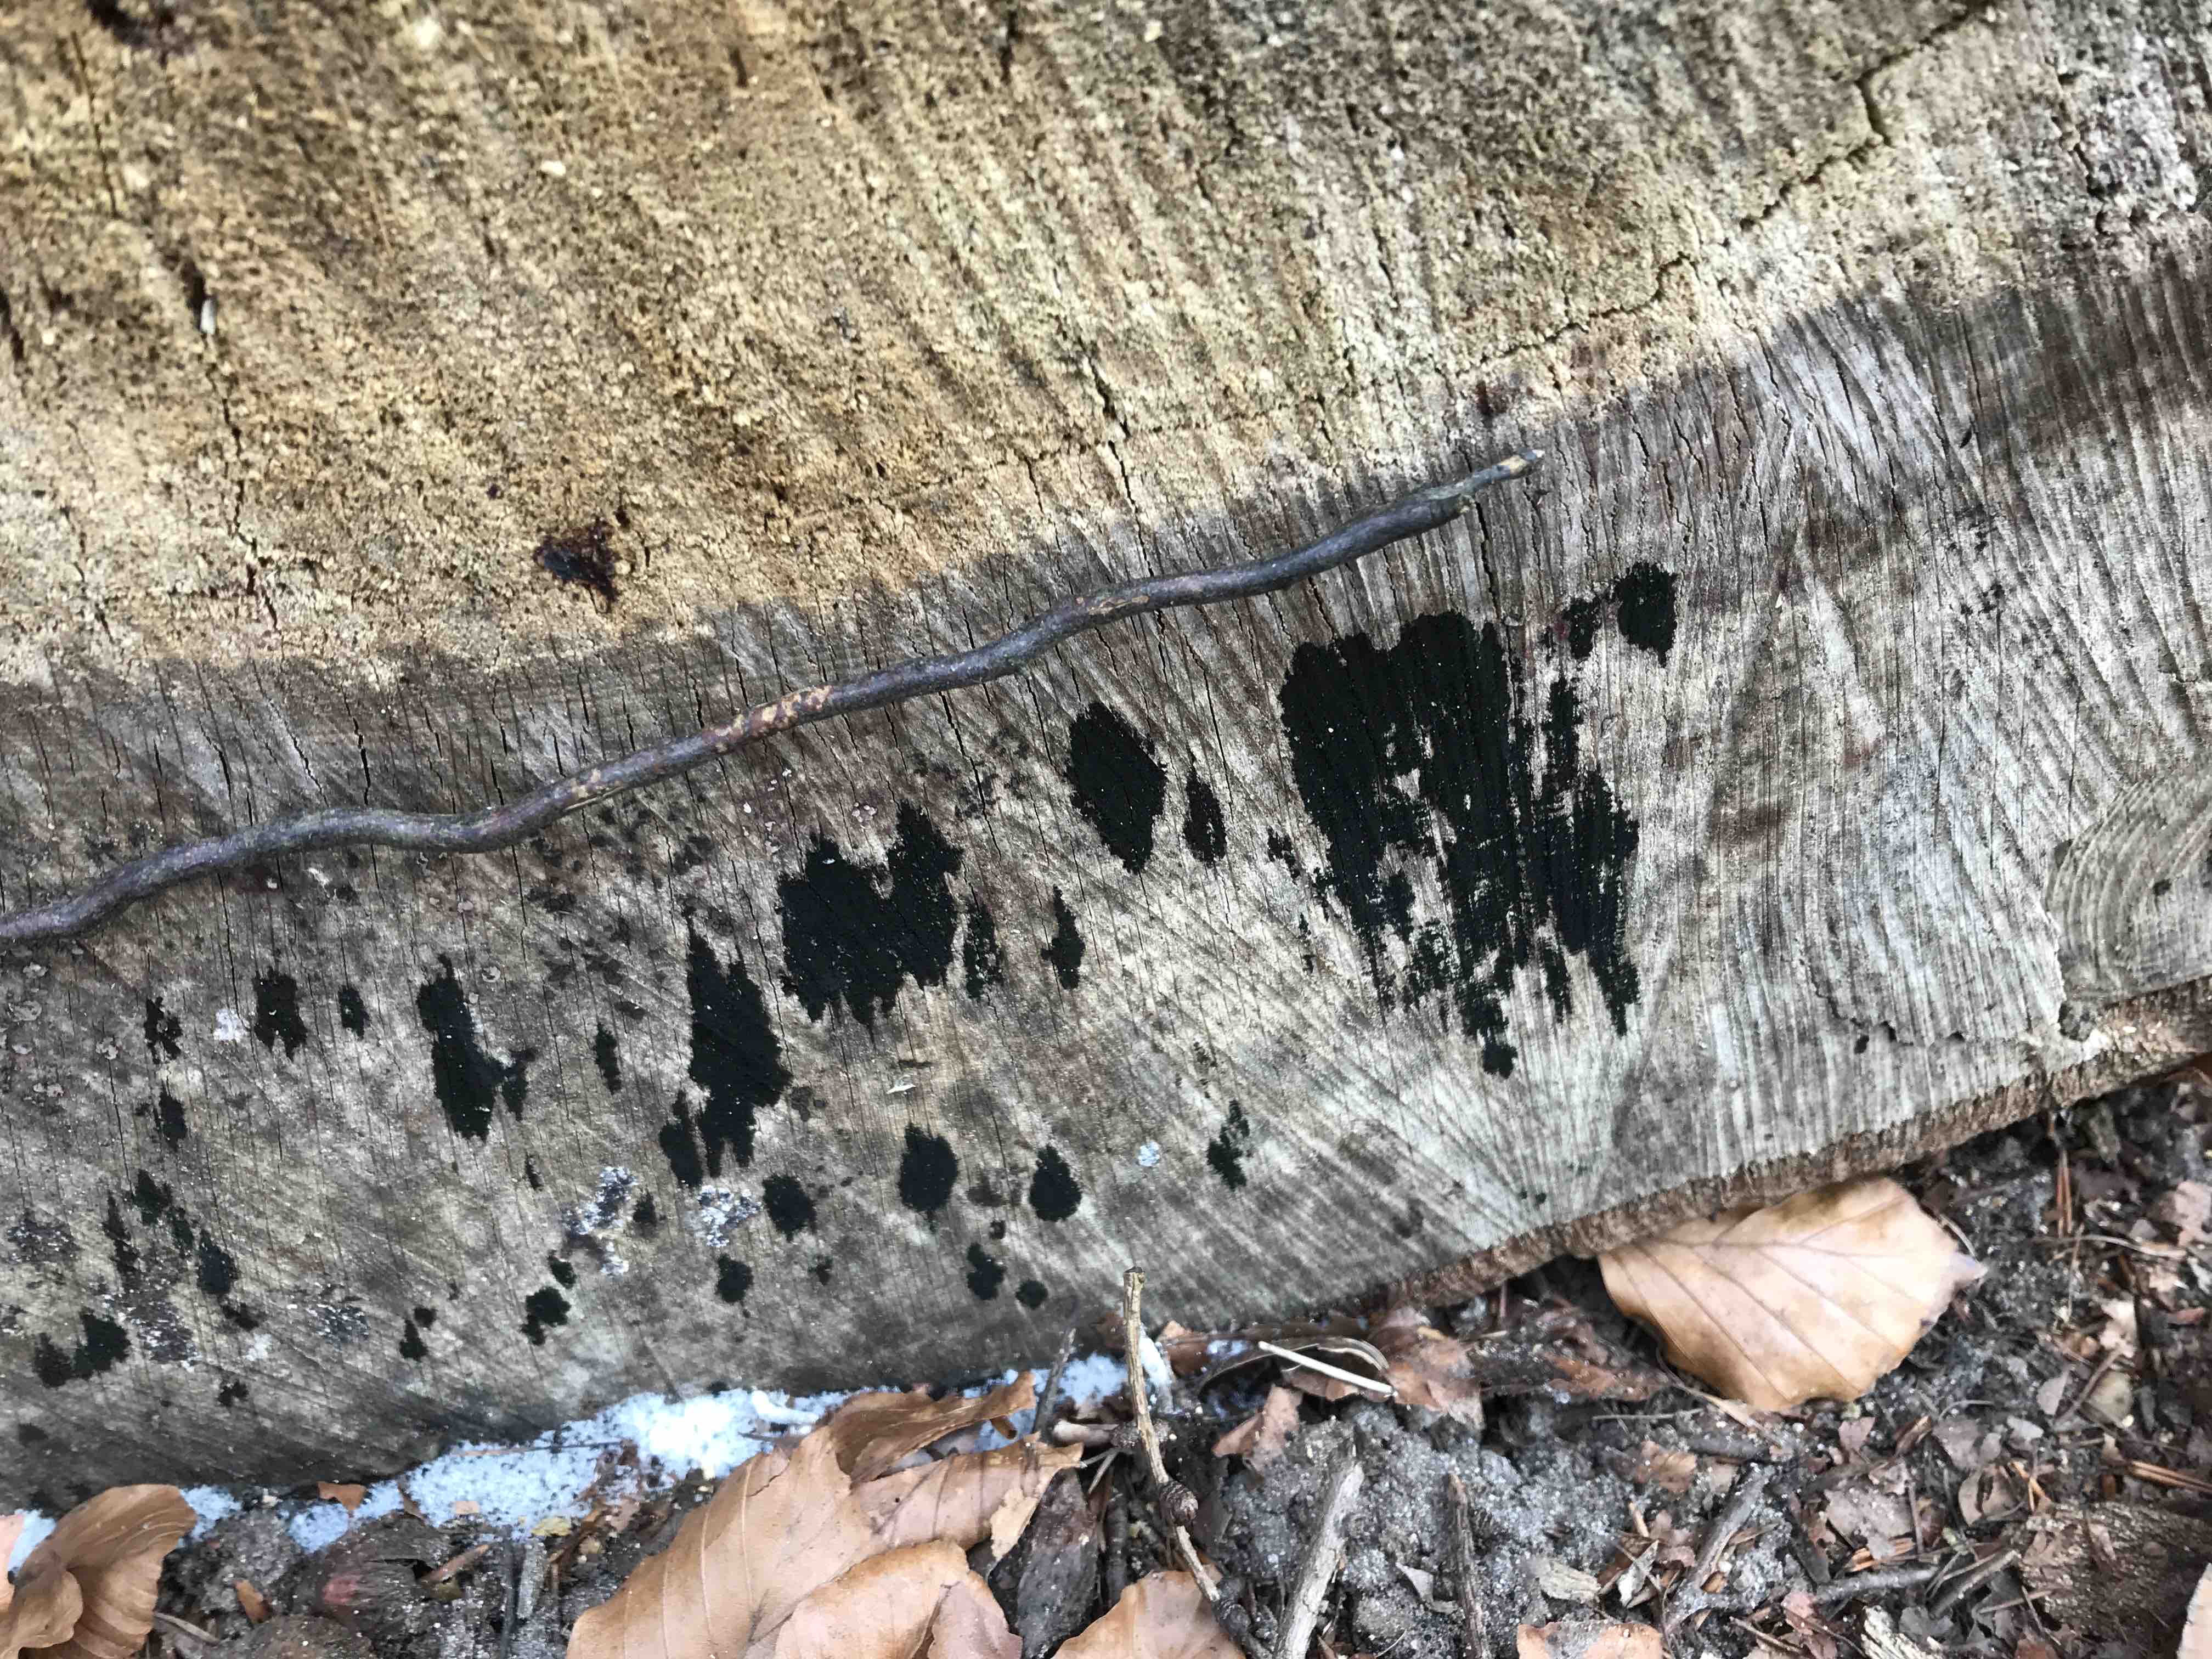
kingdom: Fungi
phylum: Ascomycota
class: Leotiomycetes
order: Helotiales
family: Helotiaceae
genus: Bispora
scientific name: Bispora pallescens
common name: måtte-snitskive
